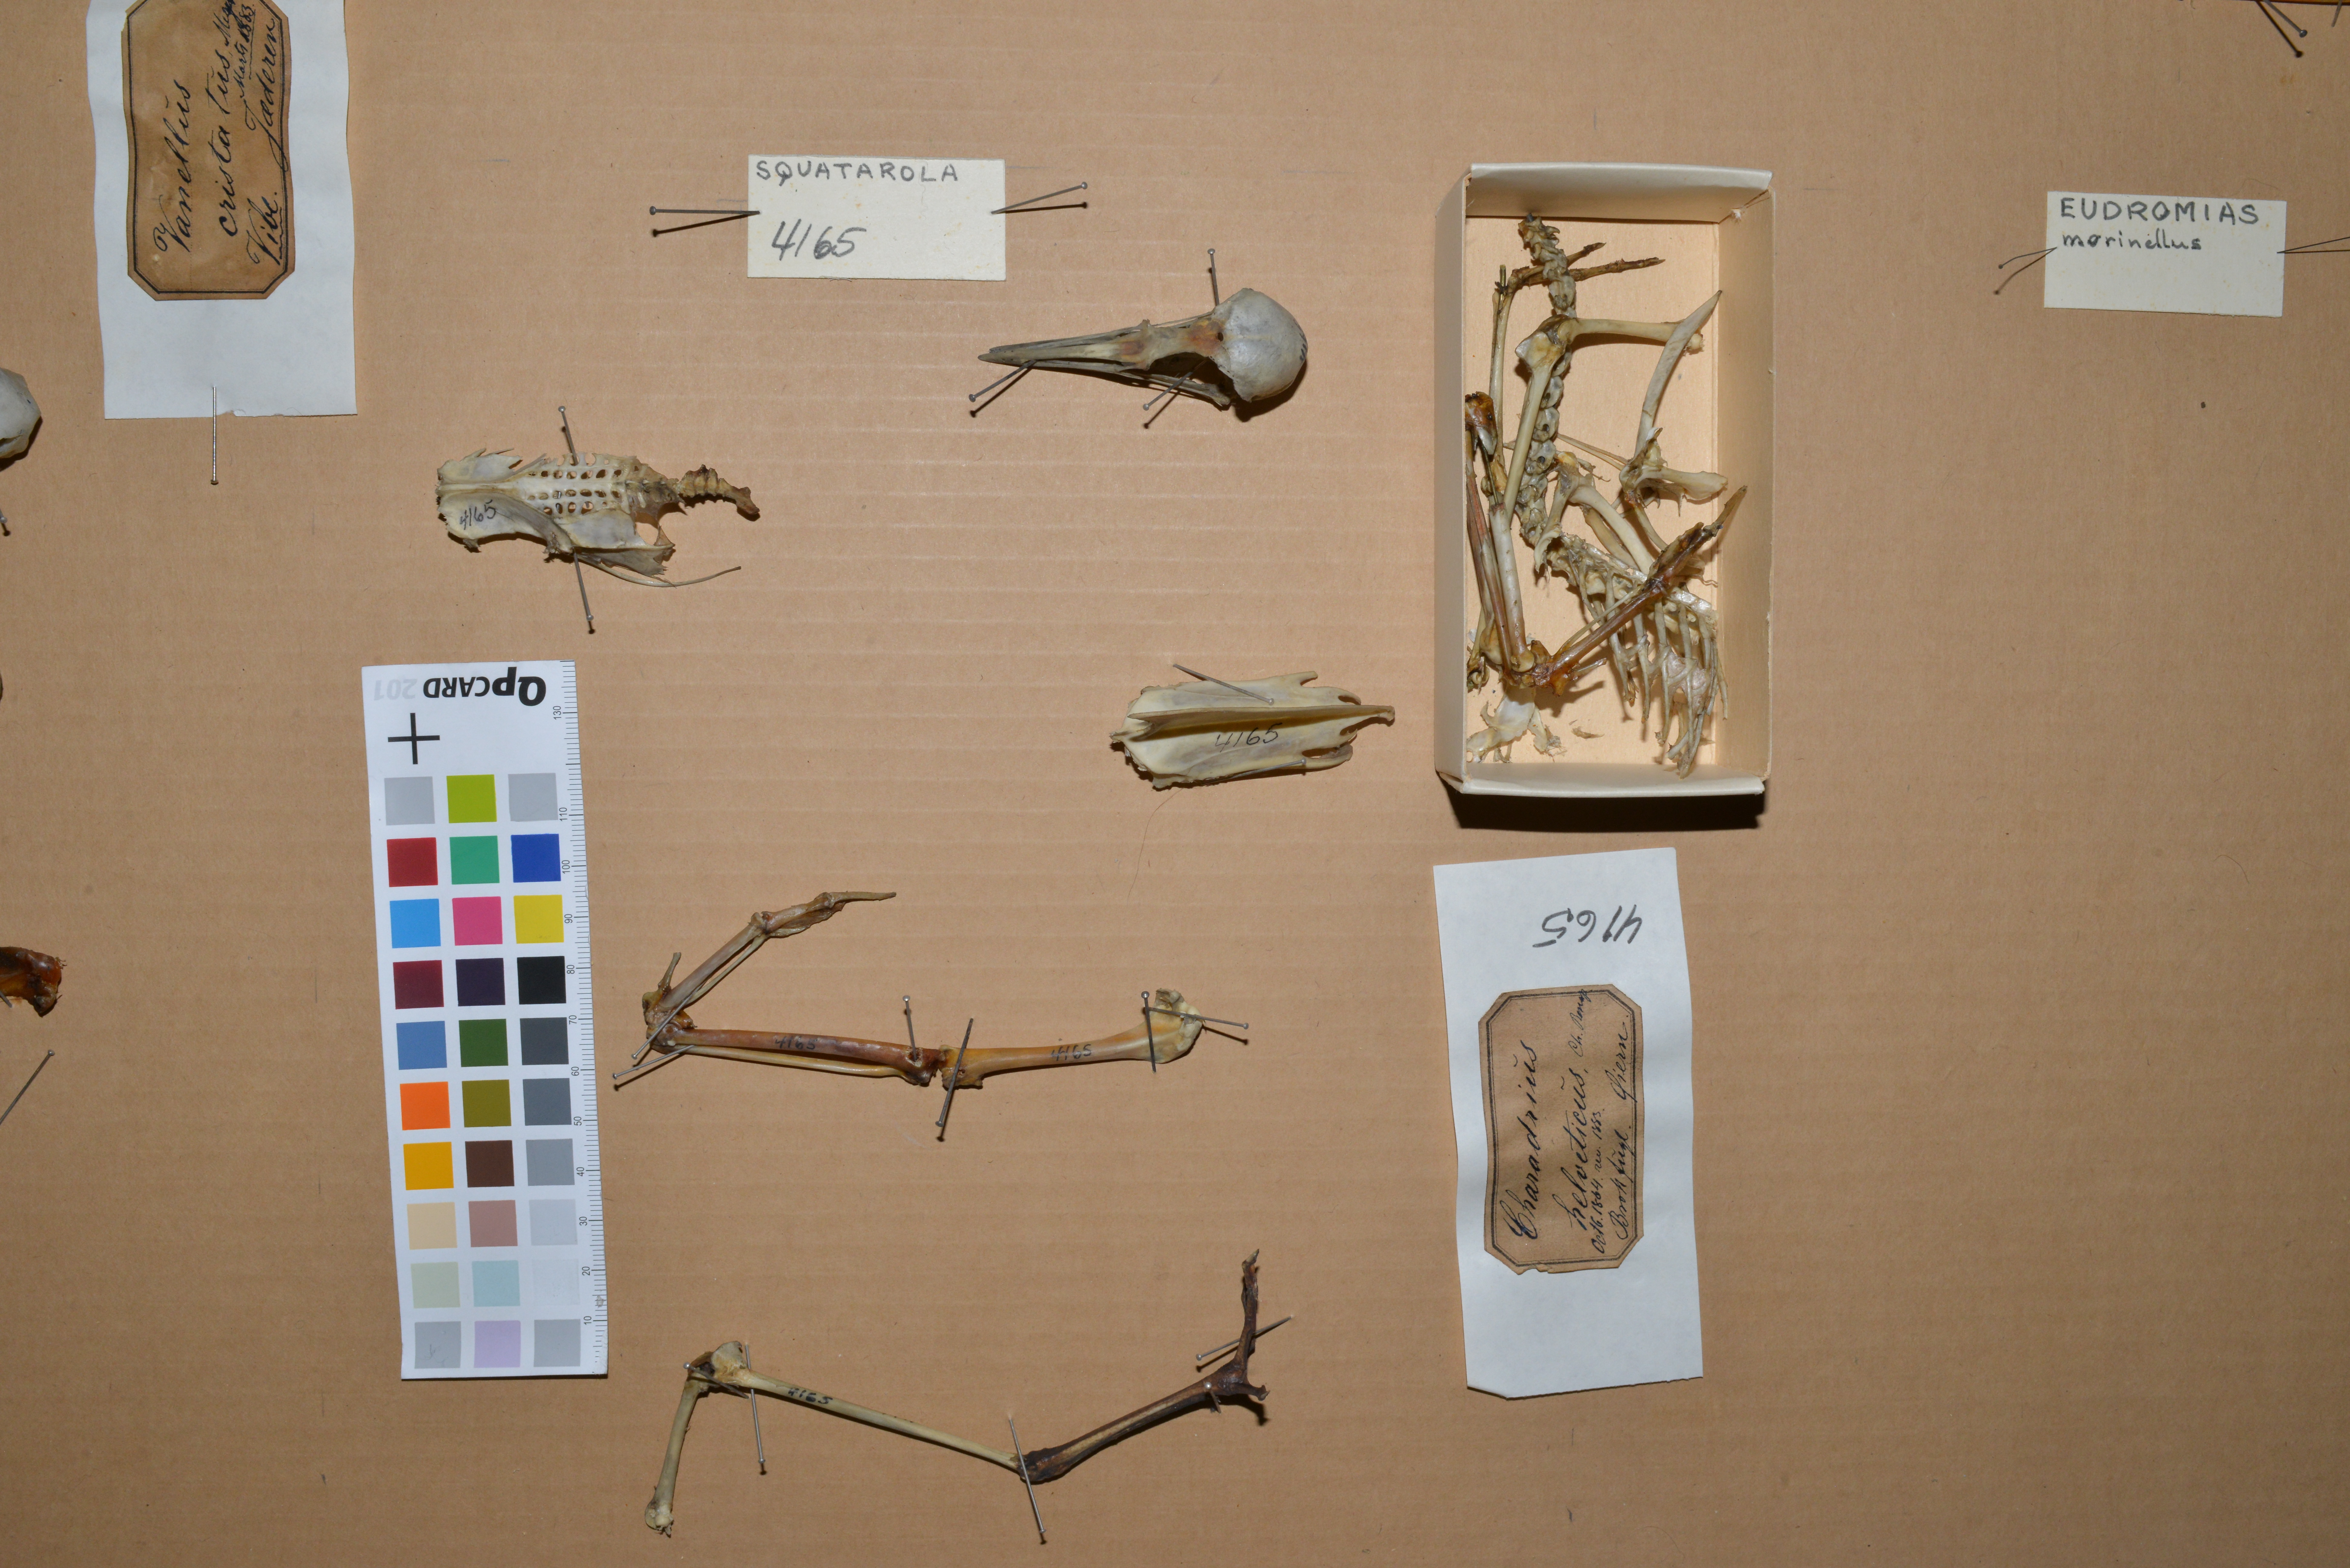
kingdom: Animalia
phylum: Chordata
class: Aves
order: Charadriiformes
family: Charadriidae
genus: Pluvialis
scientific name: Pluvialis squatarola
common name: Grey plover
